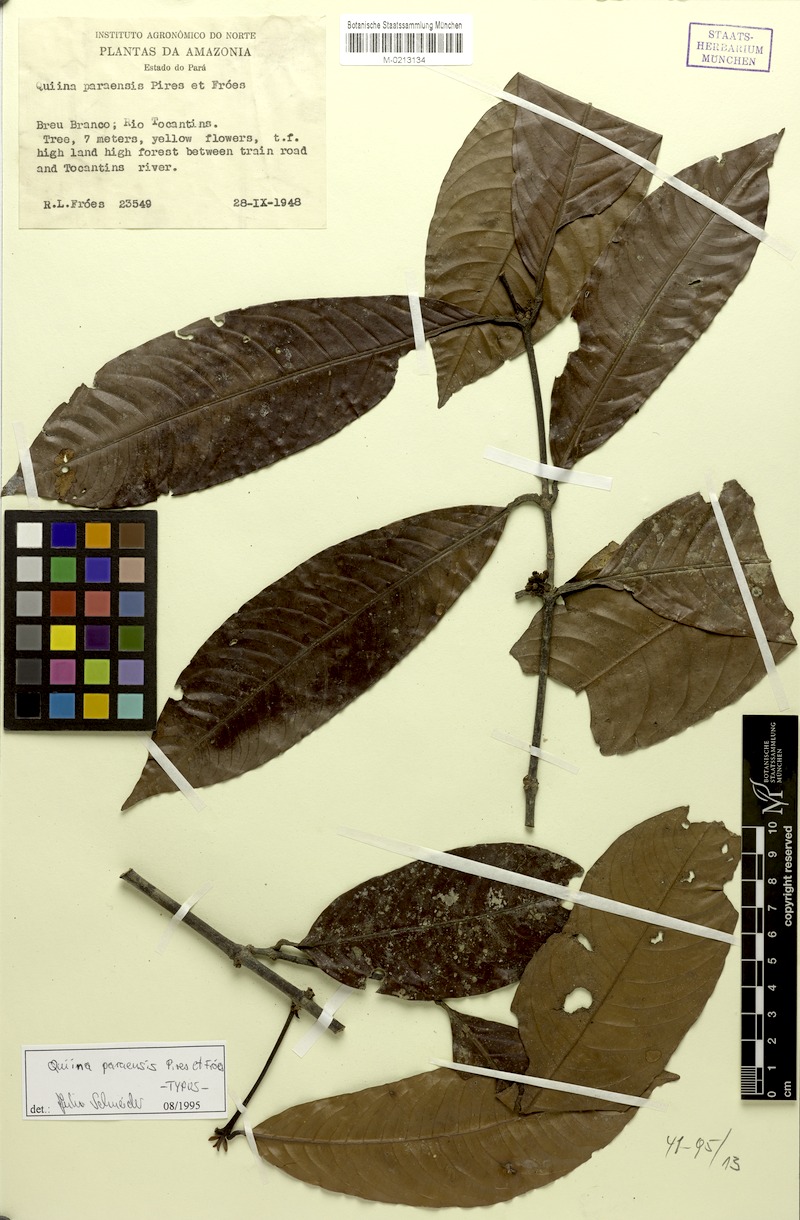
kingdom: Plantae
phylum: Tracheophyta
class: Magnoliopsida
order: Malpighiales
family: Quiinaceae
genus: Quiina
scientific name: Quiina paraensis
